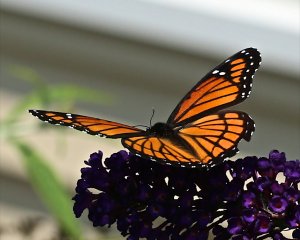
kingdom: Animalia
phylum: Arthropoda
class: Insecta
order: Lepidoptera
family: Nymphalidae
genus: Limenitis
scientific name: Limenitis archippus
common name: Viceroy
